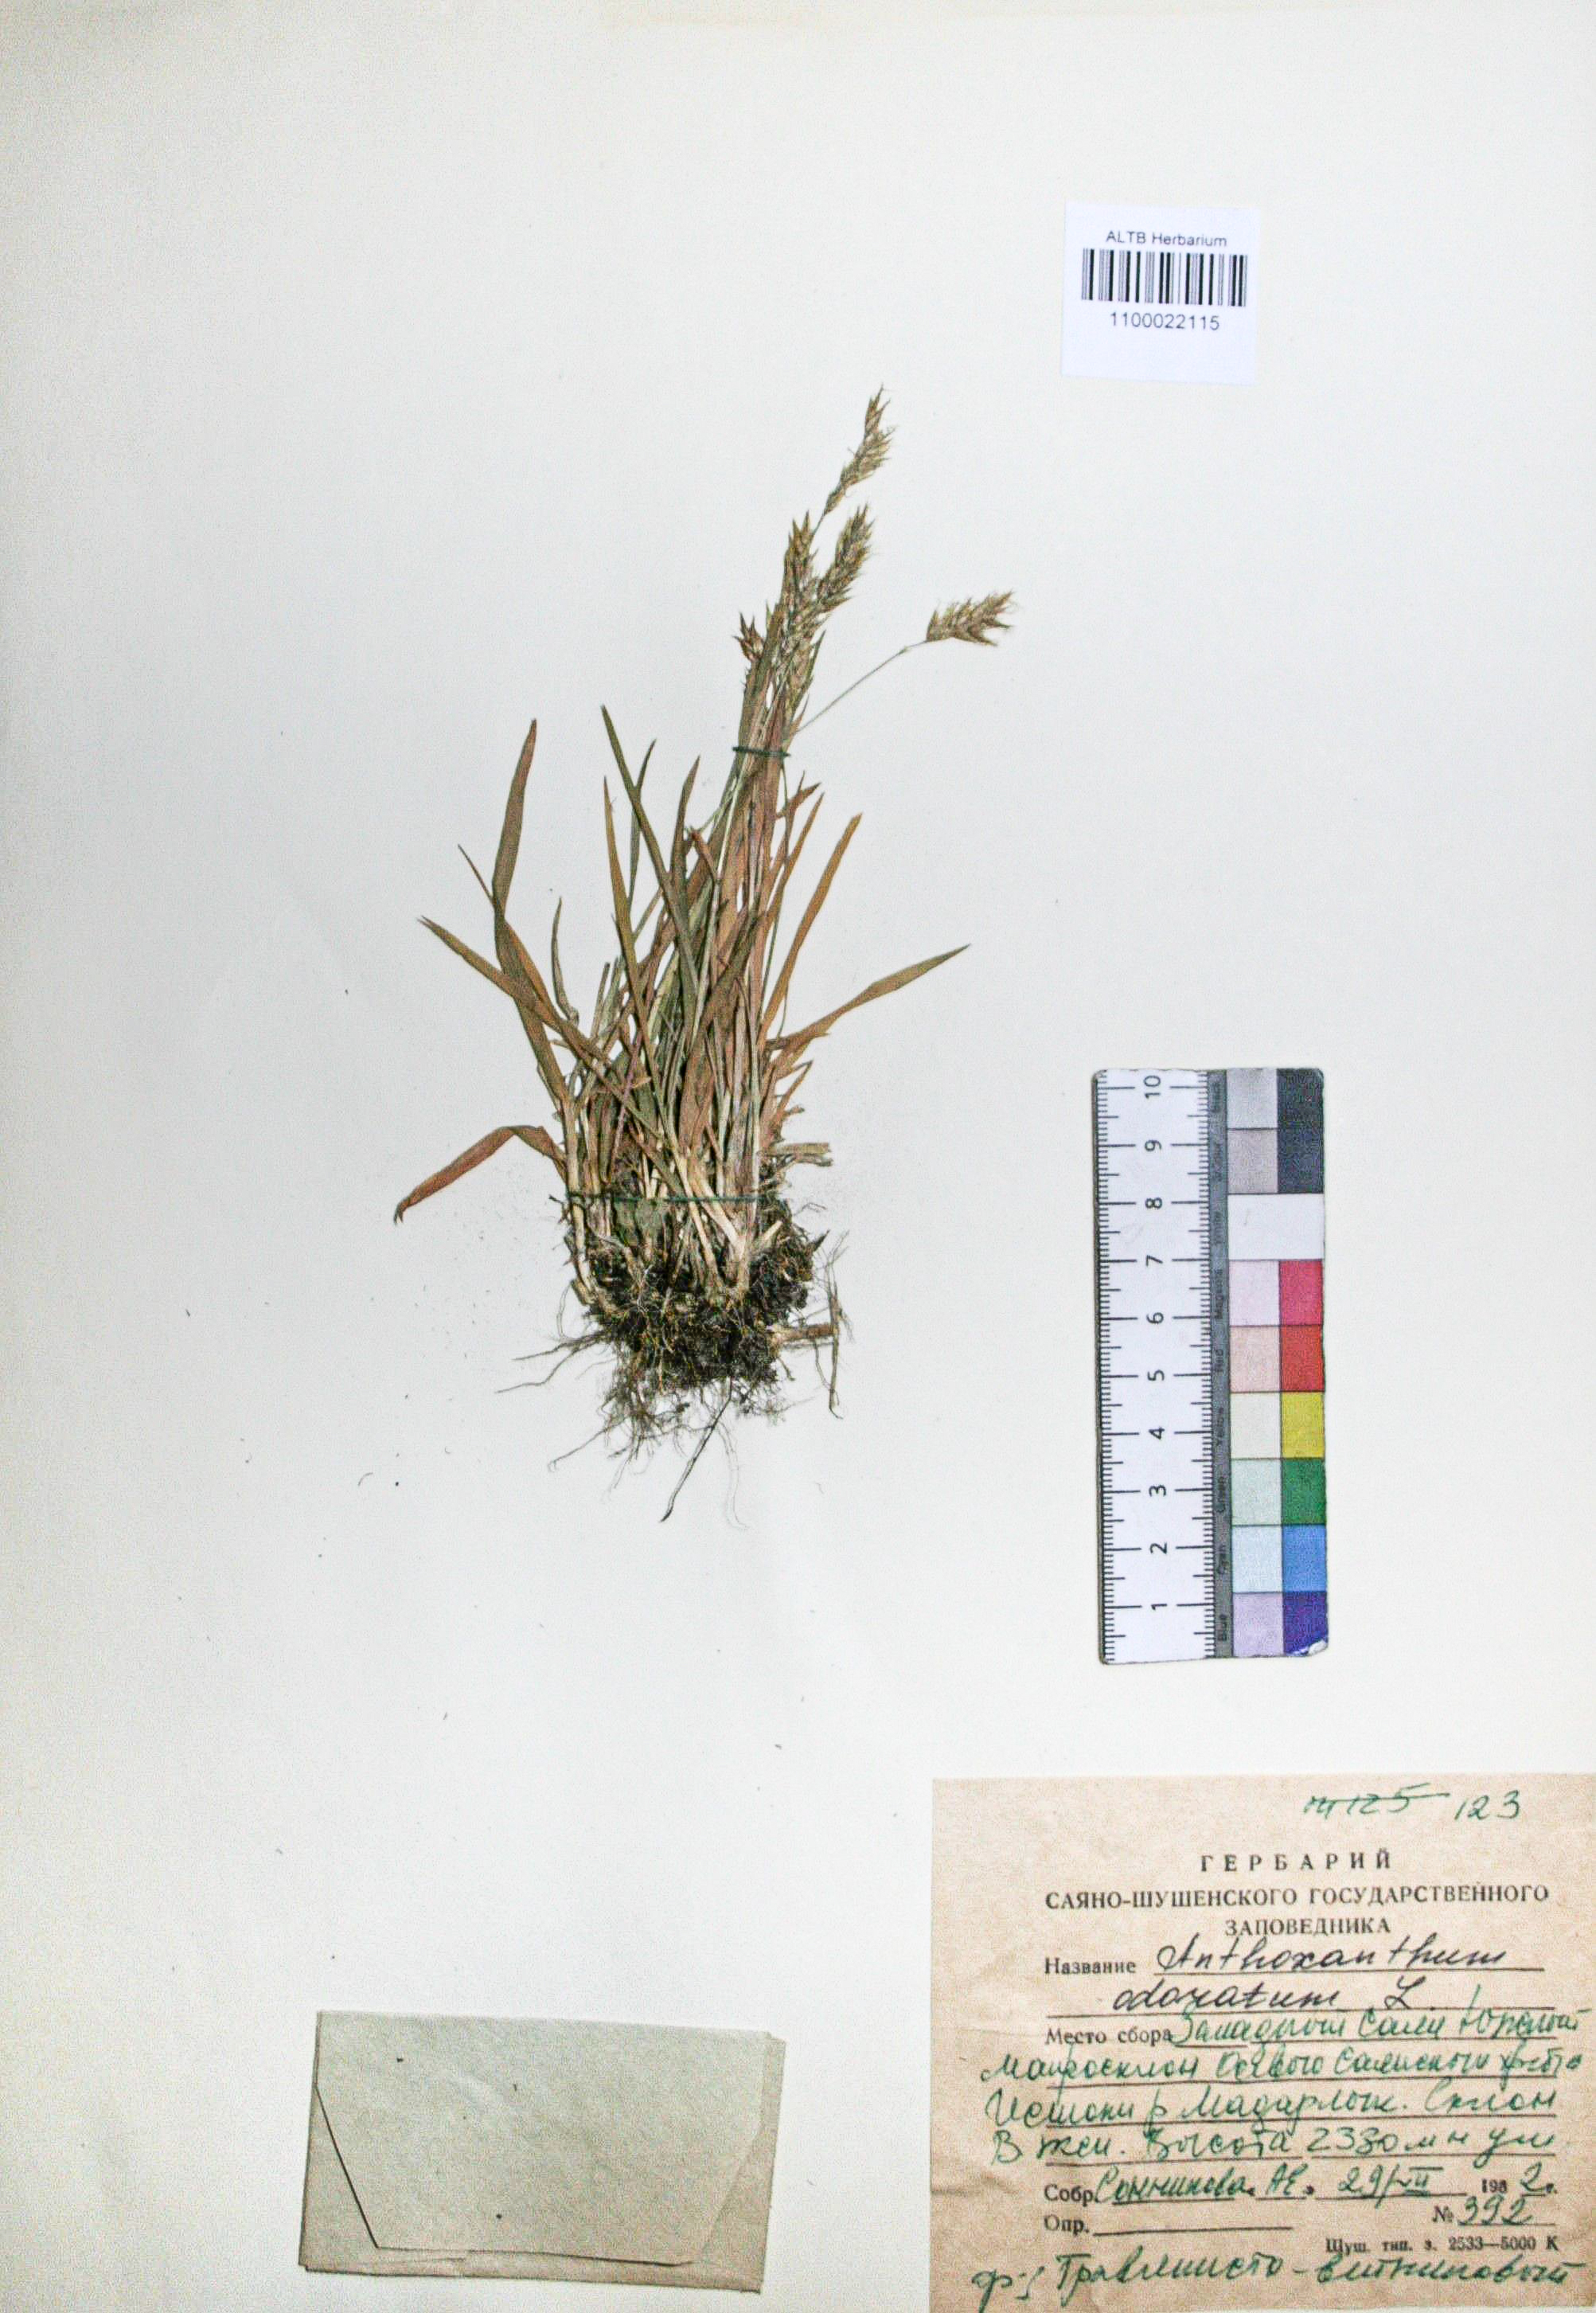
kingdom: Plantae
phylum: Tracheophyta
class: Liliopsida
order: Poales
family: Poaceae
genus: Anthoxanthum
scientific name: Anthoxanthum odoratum
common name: Sweet vernalgrass
